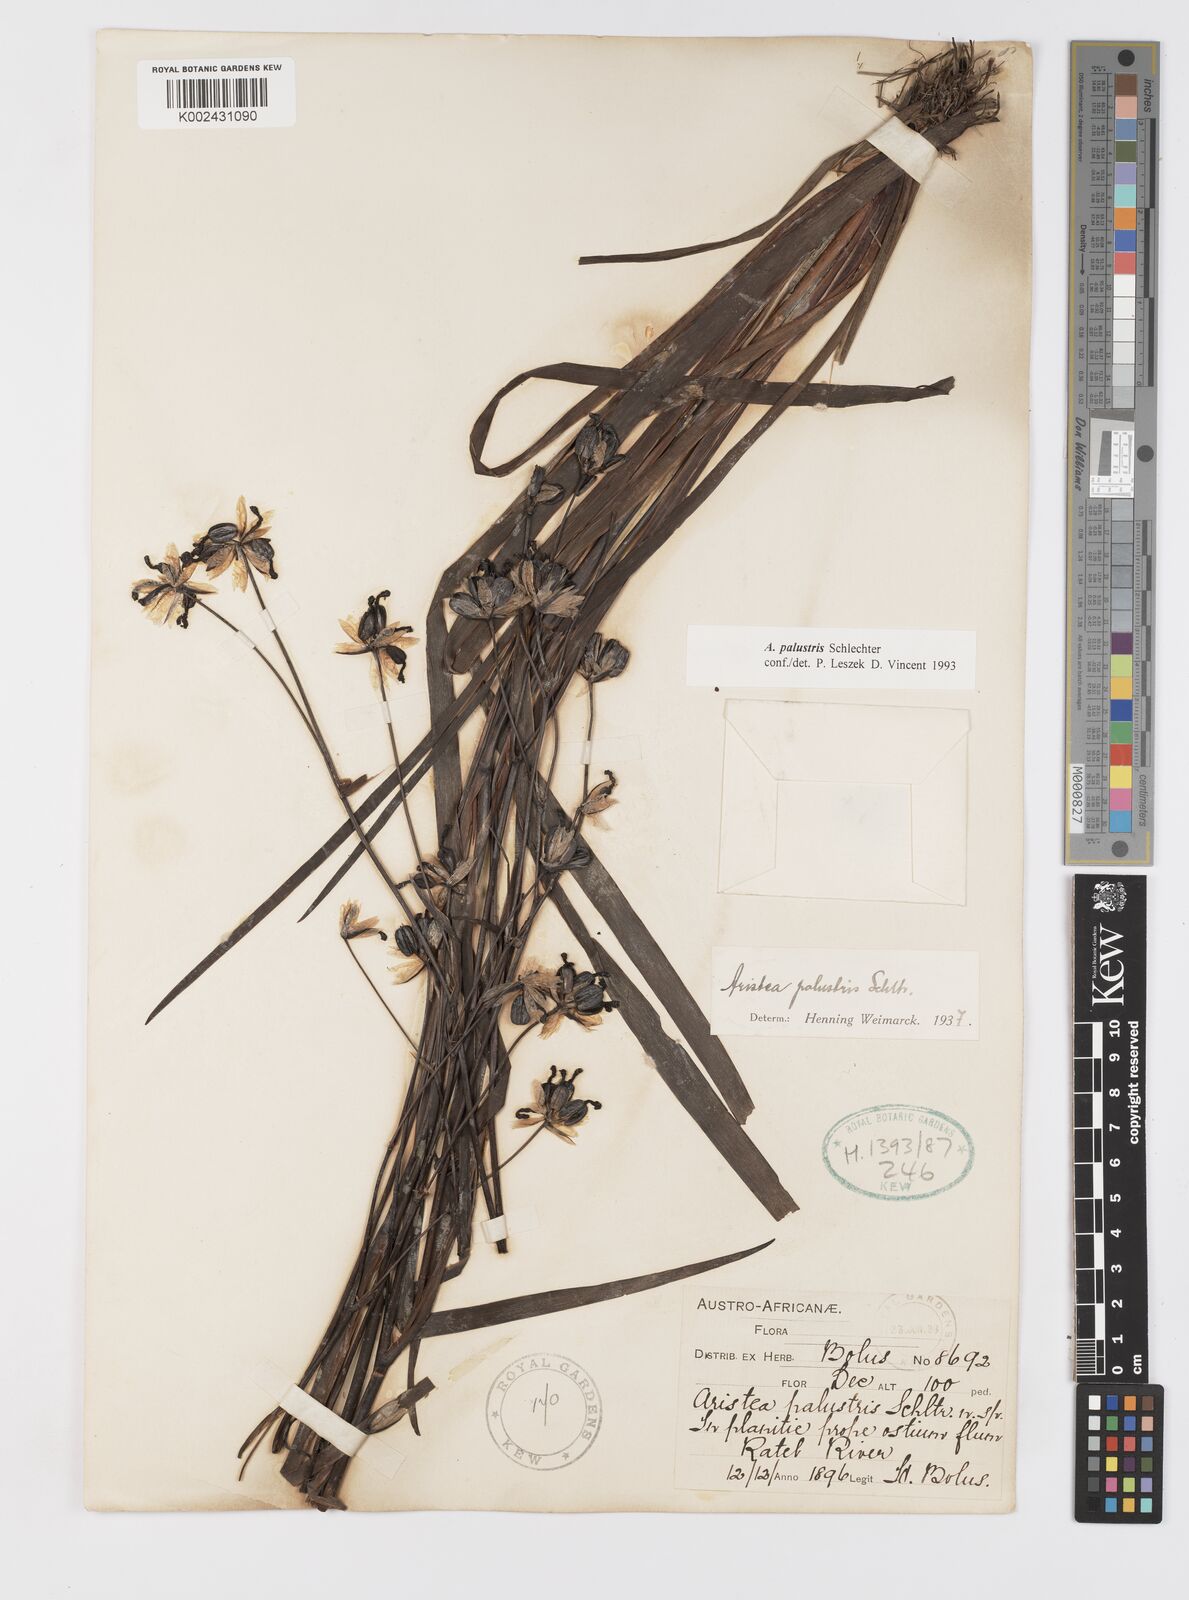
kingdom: Plantae
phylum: Tracheophyta
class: Liliopsida
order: Asparagales
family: Iridaceae
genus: Aristea
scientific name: Aristea palustris
